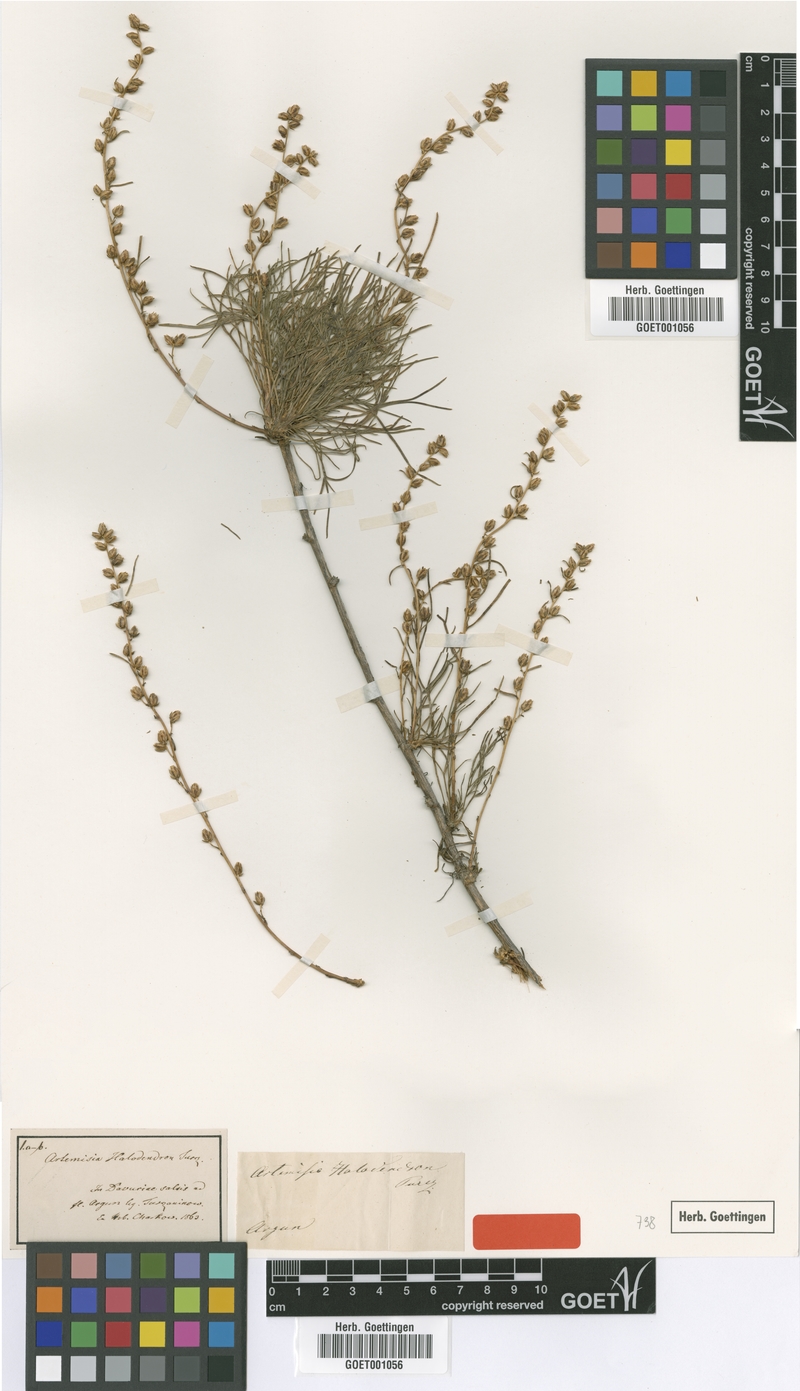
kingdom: Plantae
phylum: Tracheophyta
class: Magnoliopsida
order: Asterales
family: Asteraceae
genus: Artemisia
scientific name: Artemisia halodendron
